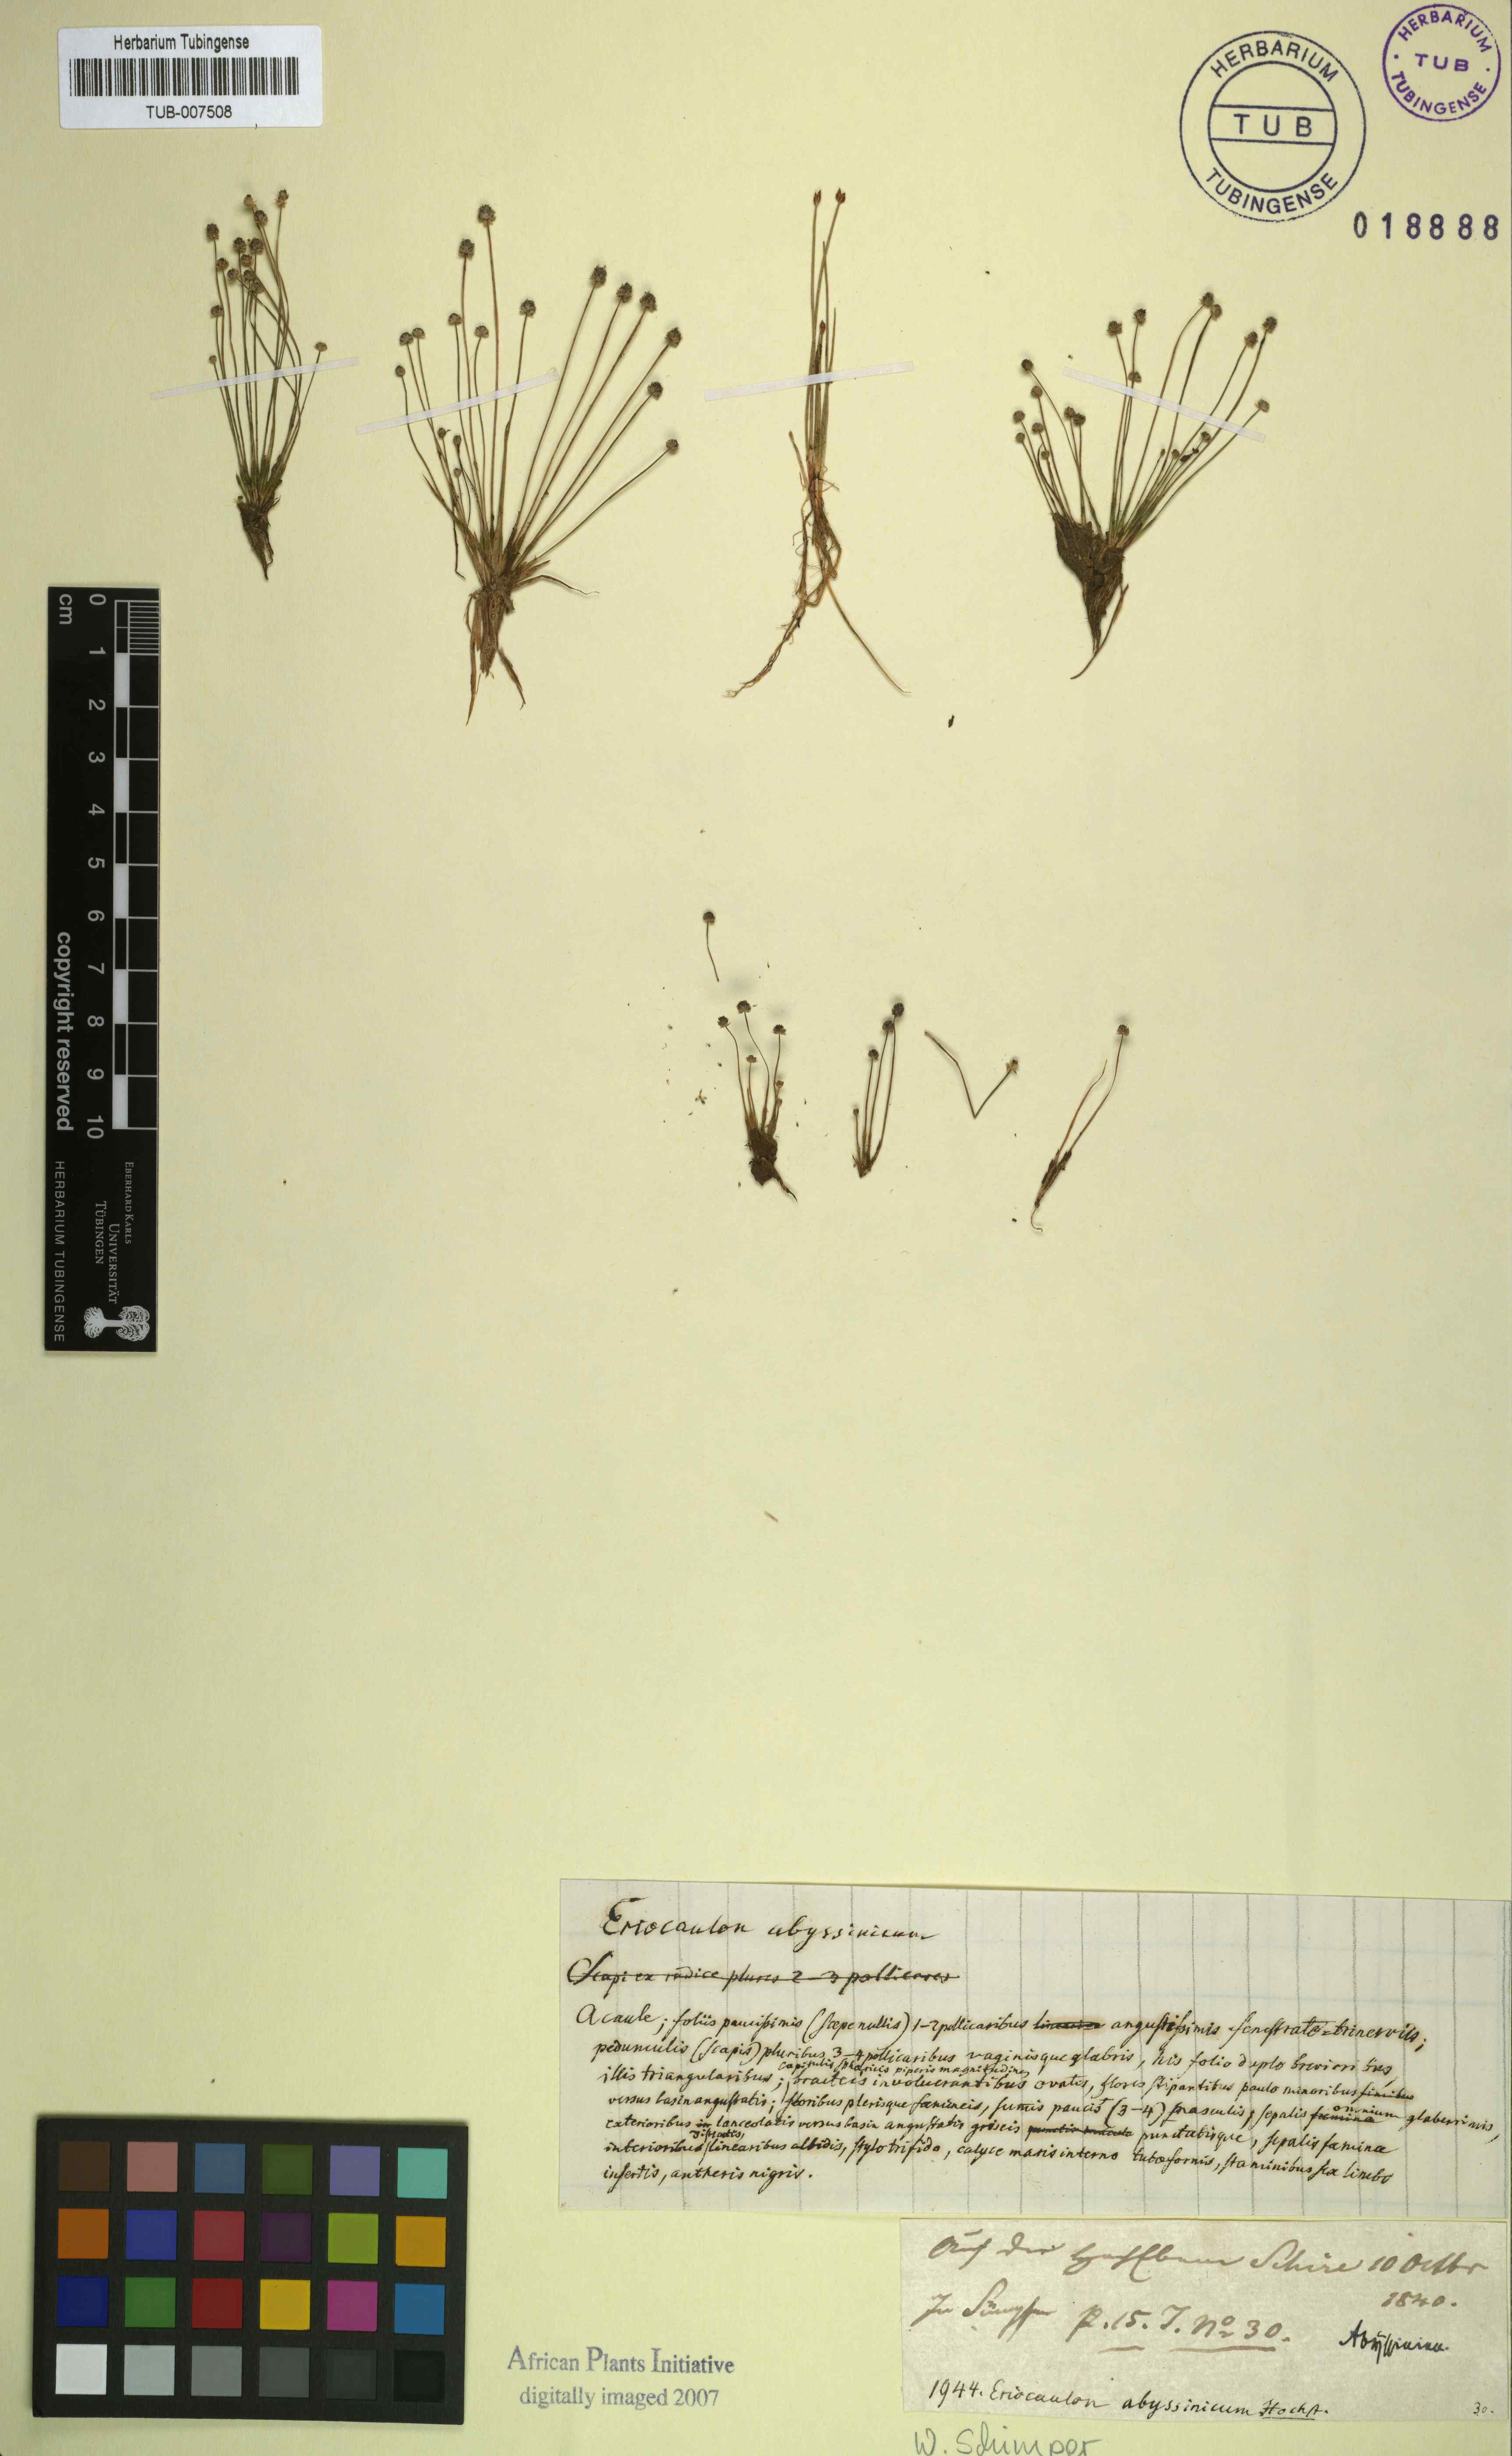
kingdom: Plantae
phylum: Tracheophyta
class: Liliopsida
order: Poales
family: Eriocaulaceae
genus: Eriocaulon
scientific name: Eriocaulon abyssinicum
